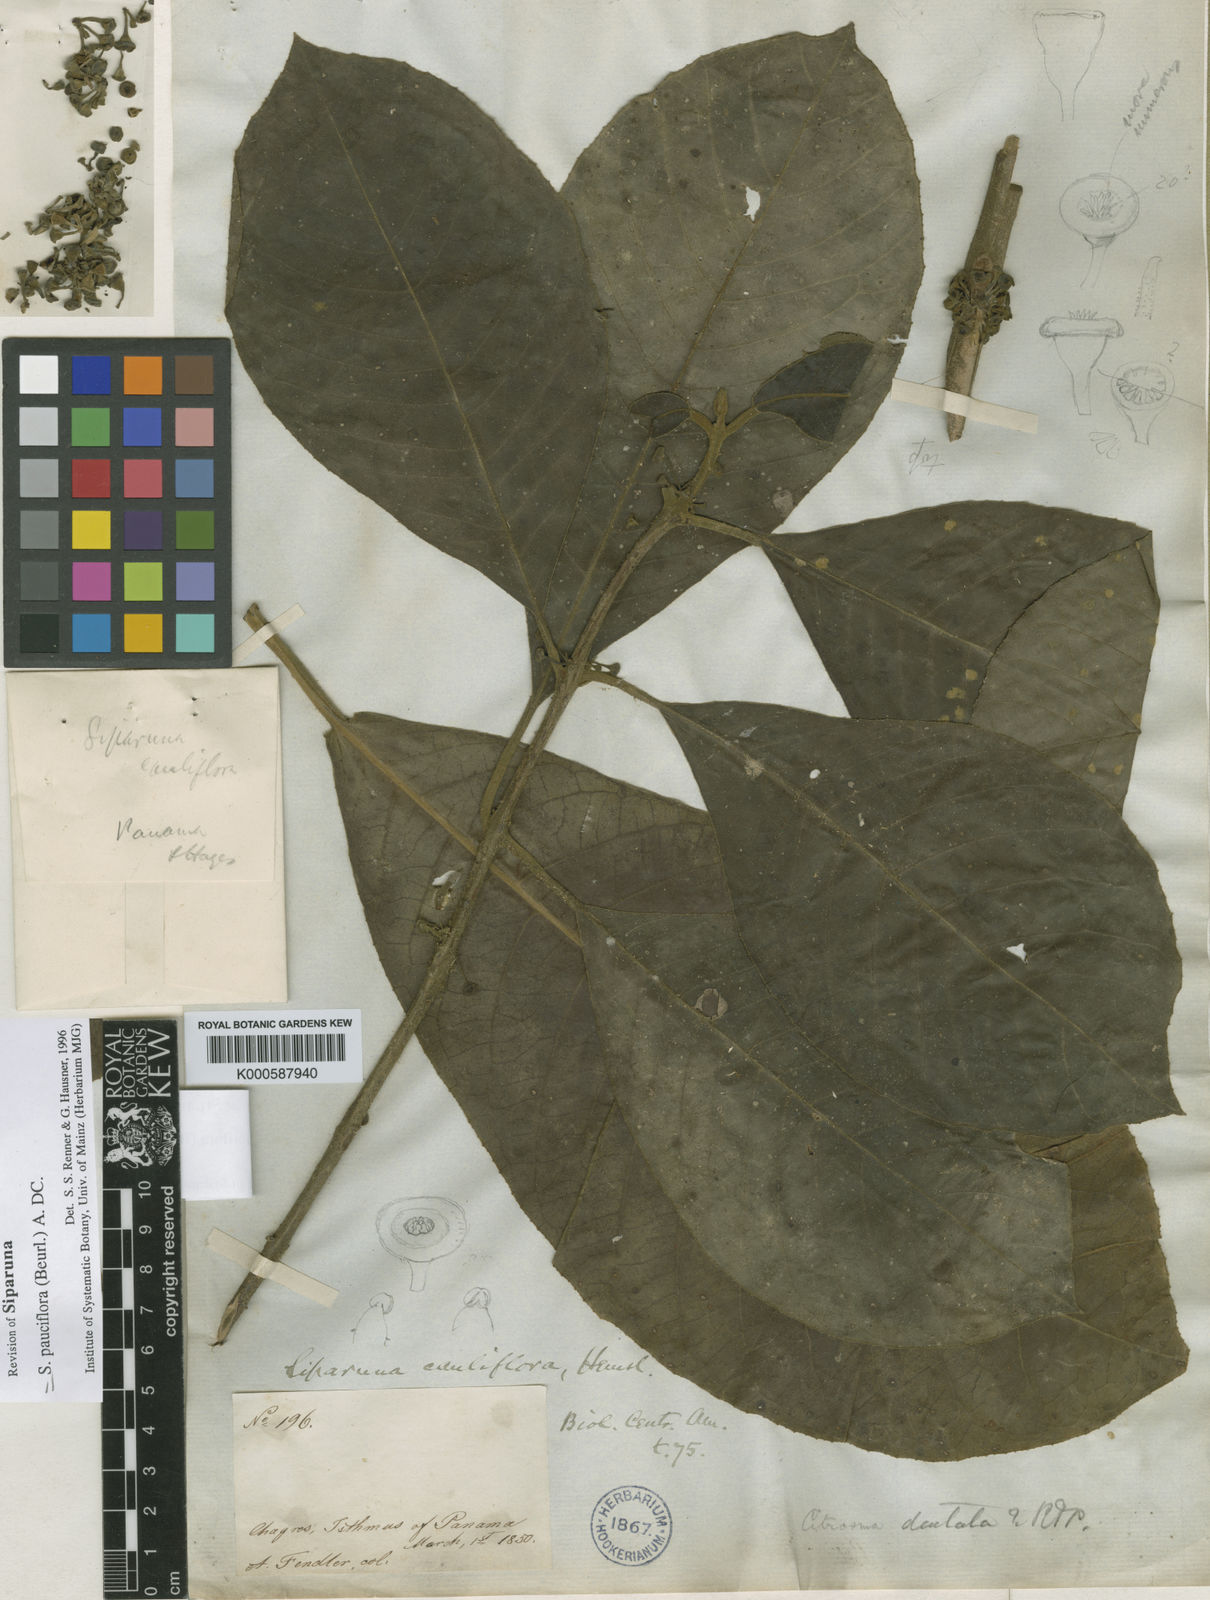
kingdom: Plantae
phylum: Tracheophyta
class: Magnoliopsida
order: Laurales
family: Siparunaceae
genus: Siparuna
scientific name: Siparuna pauciflora
